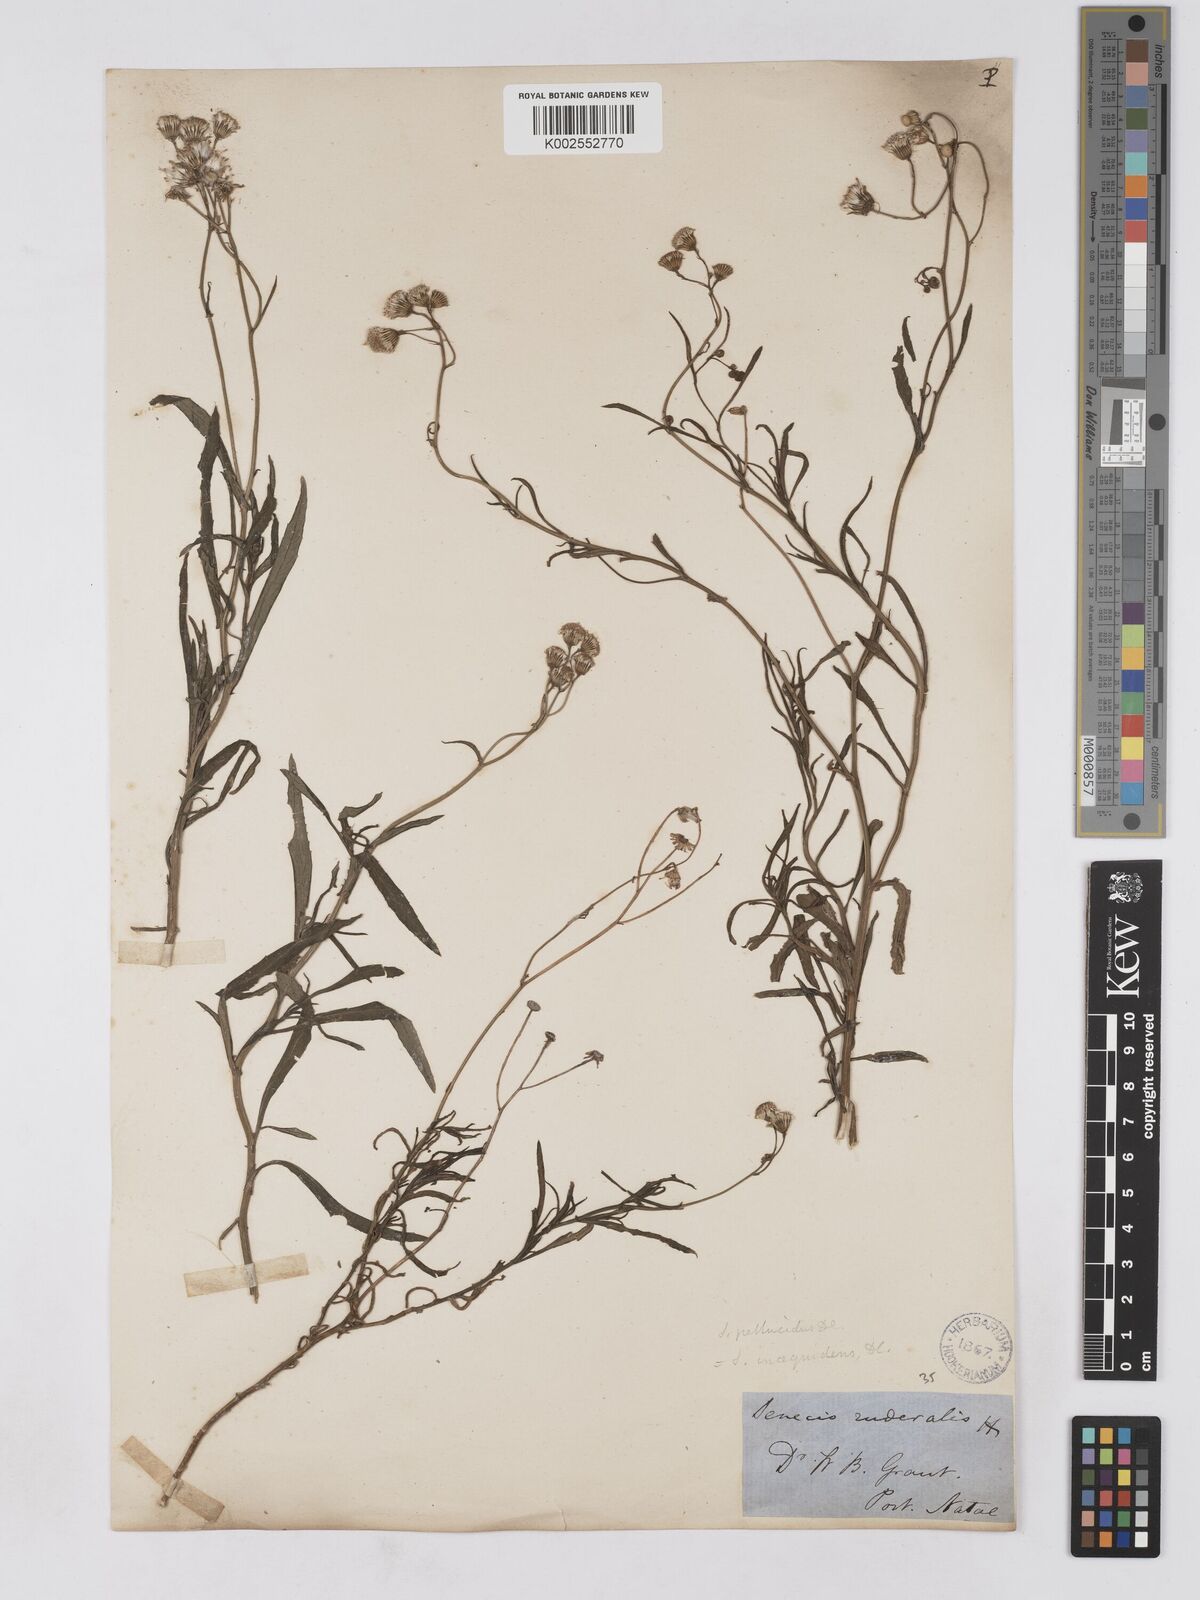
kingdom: Plantae
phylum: Tracheophyta
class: Magnoliopsida
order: Asterales
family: Asteraceae
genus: Senecio
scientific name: Senecio madagascariensis
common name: Madagascar ragwort
